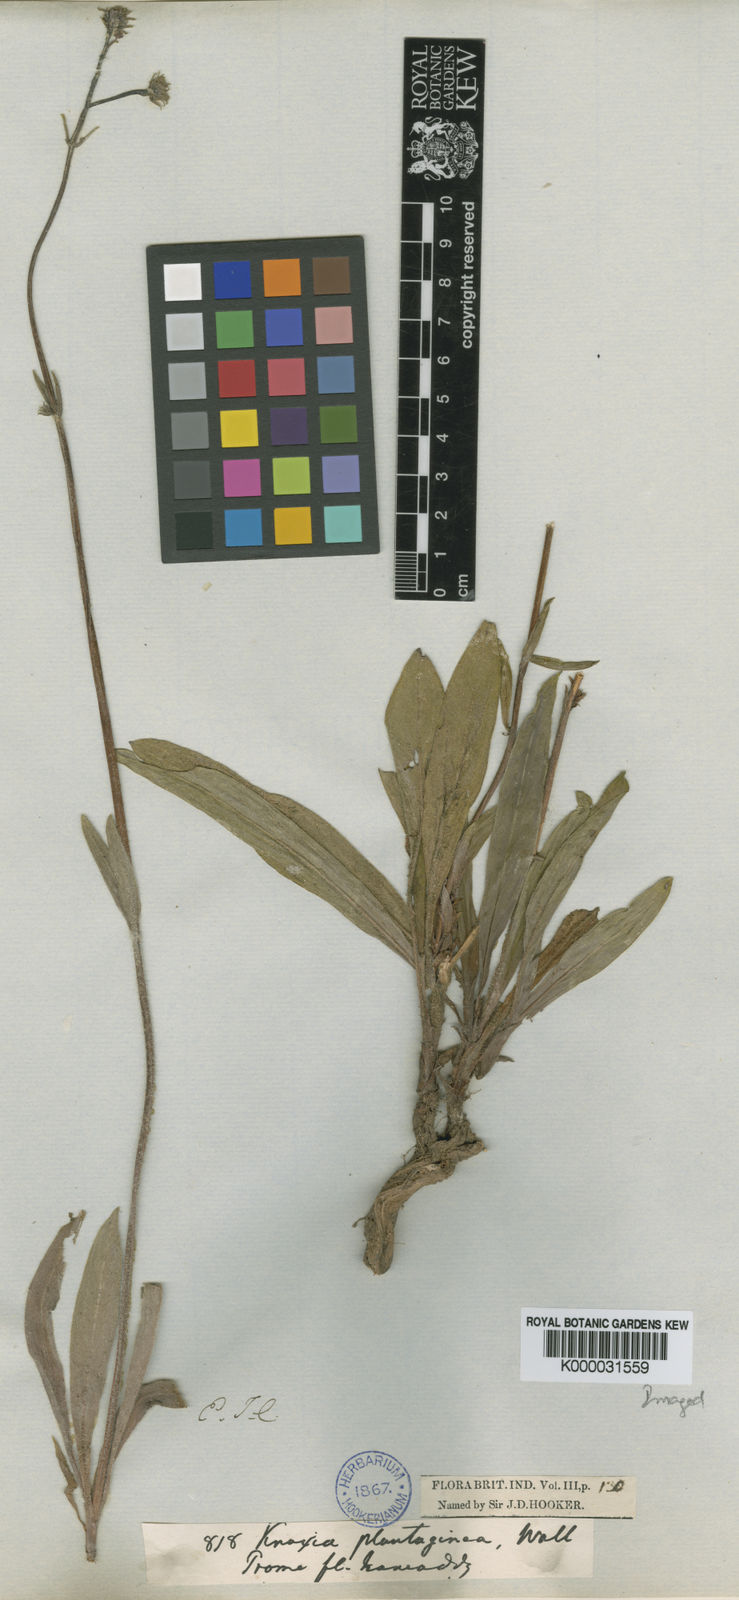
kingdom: Plantae
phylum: Tracheophyta
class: Magnoliopsida
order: Gentianales
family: Rubiaceae
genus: Knoxia
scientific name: Knoxia plantaginea
